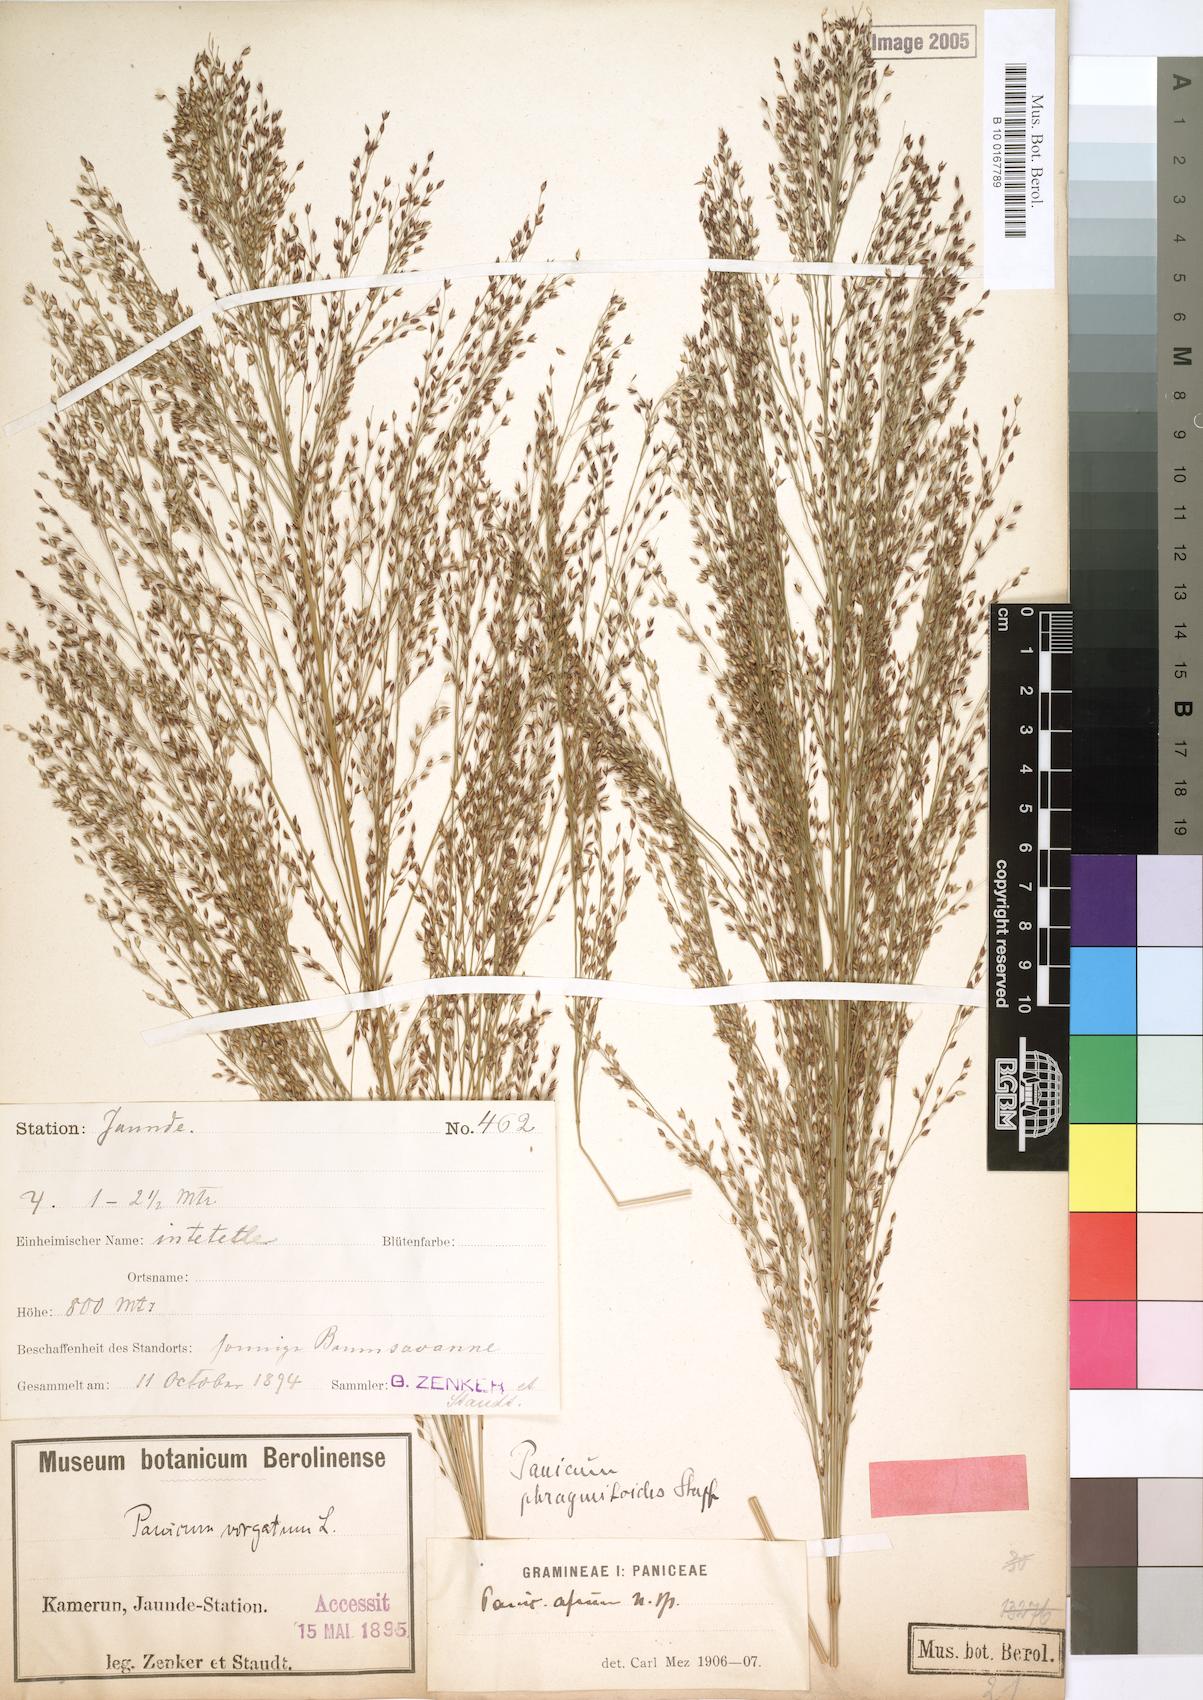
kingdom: Plantae
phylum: Tracheophyta
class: Liliopsida
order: Poales
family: Poaceae
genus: Panicum
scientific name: Panicum phragmitoides
